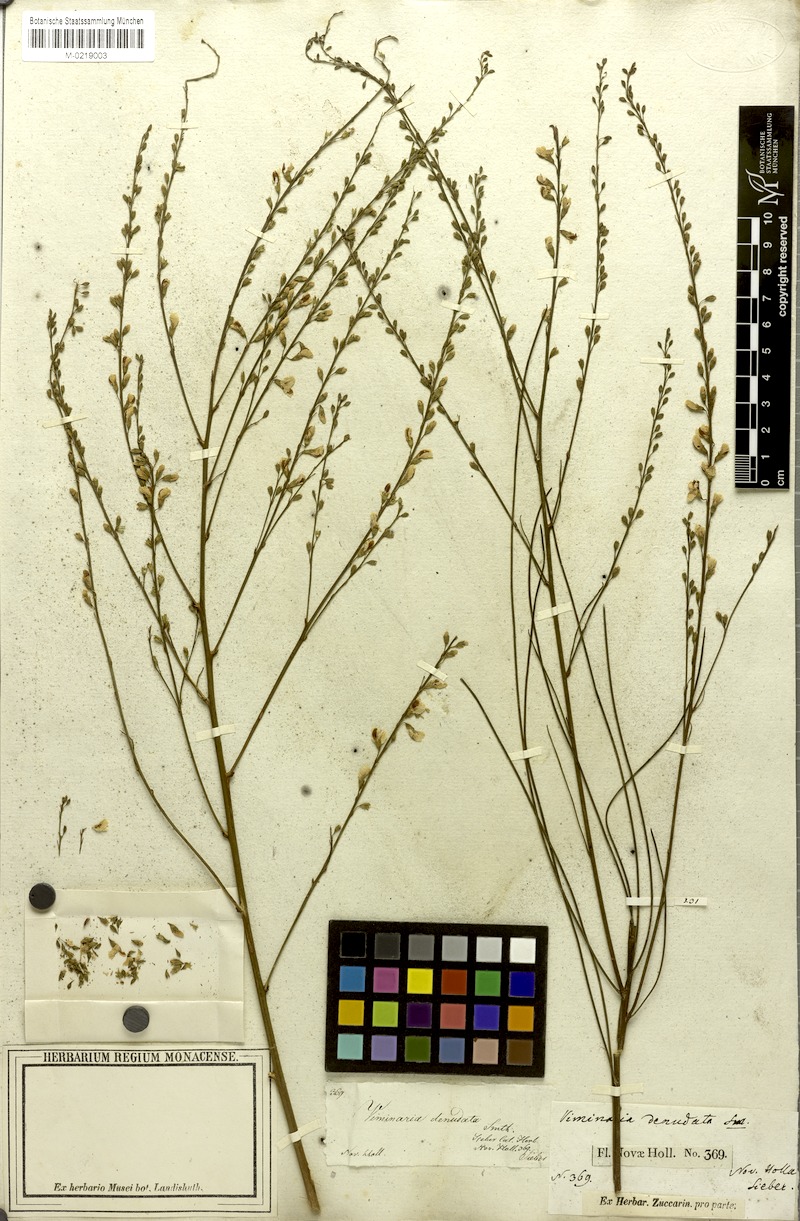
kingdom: Plantae
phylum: Tracheophyta
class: Magnoliopsida
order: Fabales
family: Fabaceae
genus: Viminaria
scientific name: Viminaria juncea
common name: Golden spray
